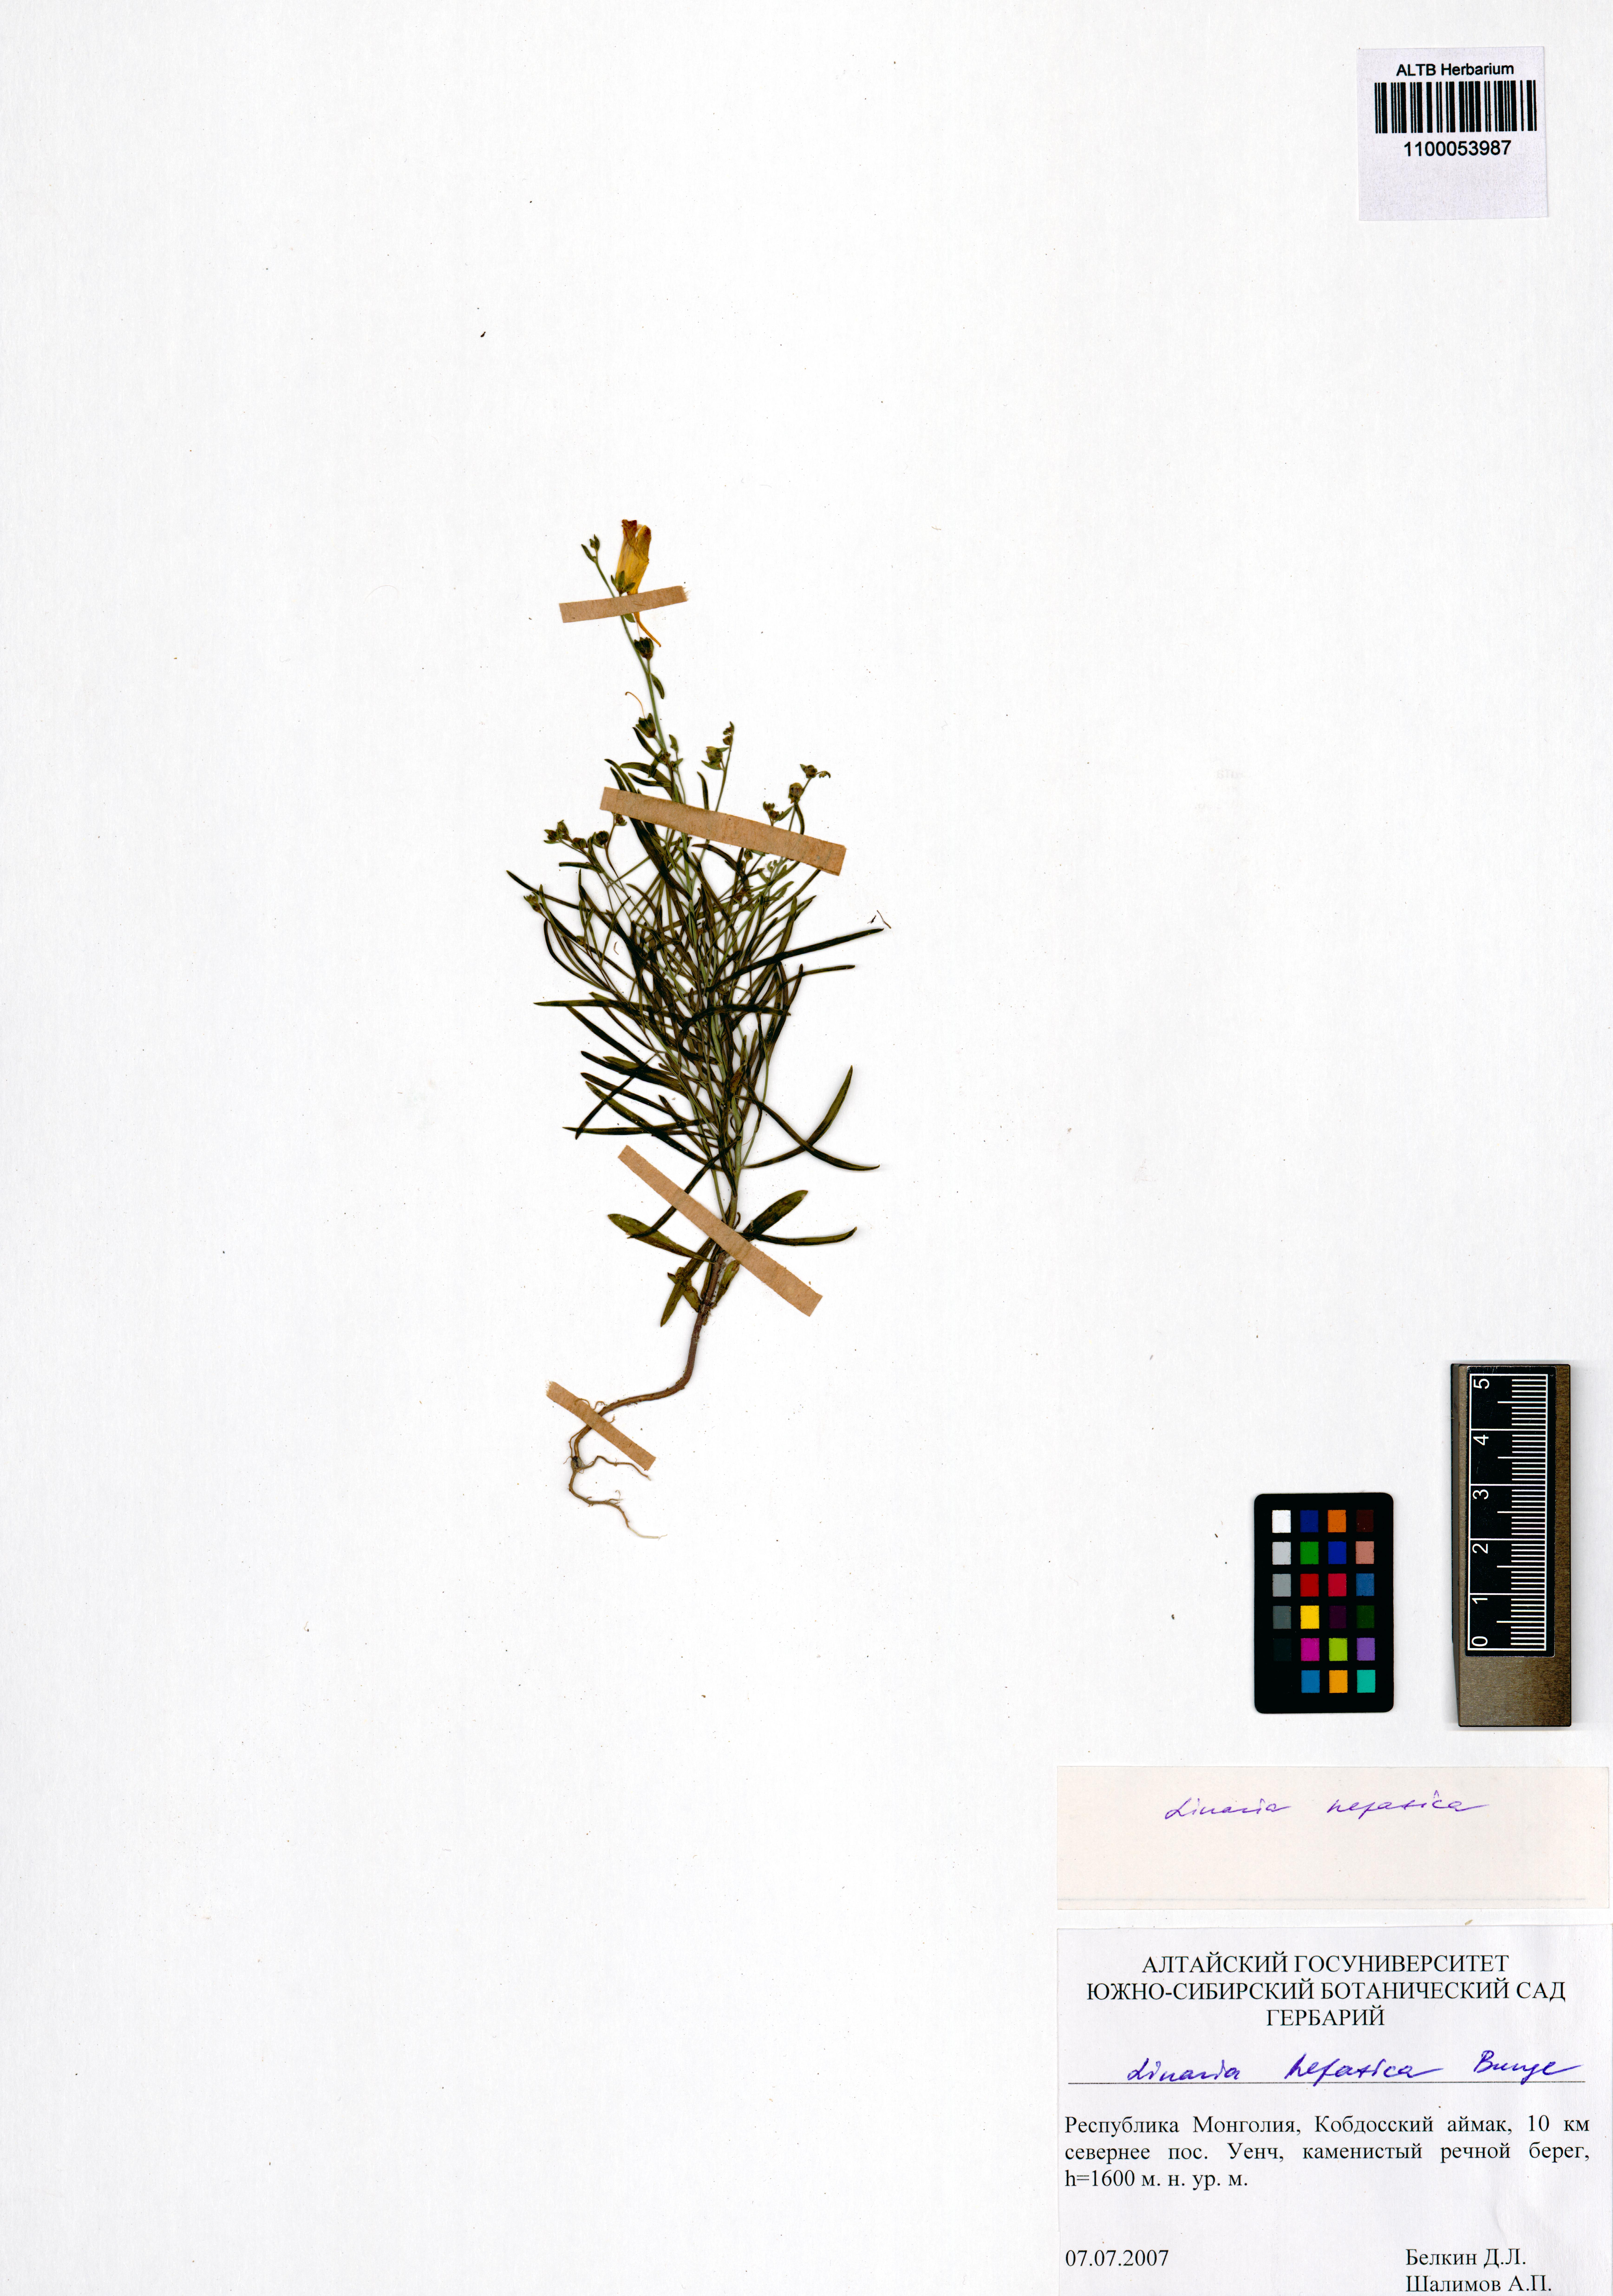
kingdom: Plantae
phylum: Tracheophyta
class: Magnoliopsida
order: Lamiales
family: Plantaginaceae
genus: Linaria
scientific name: Linaria hepatica
